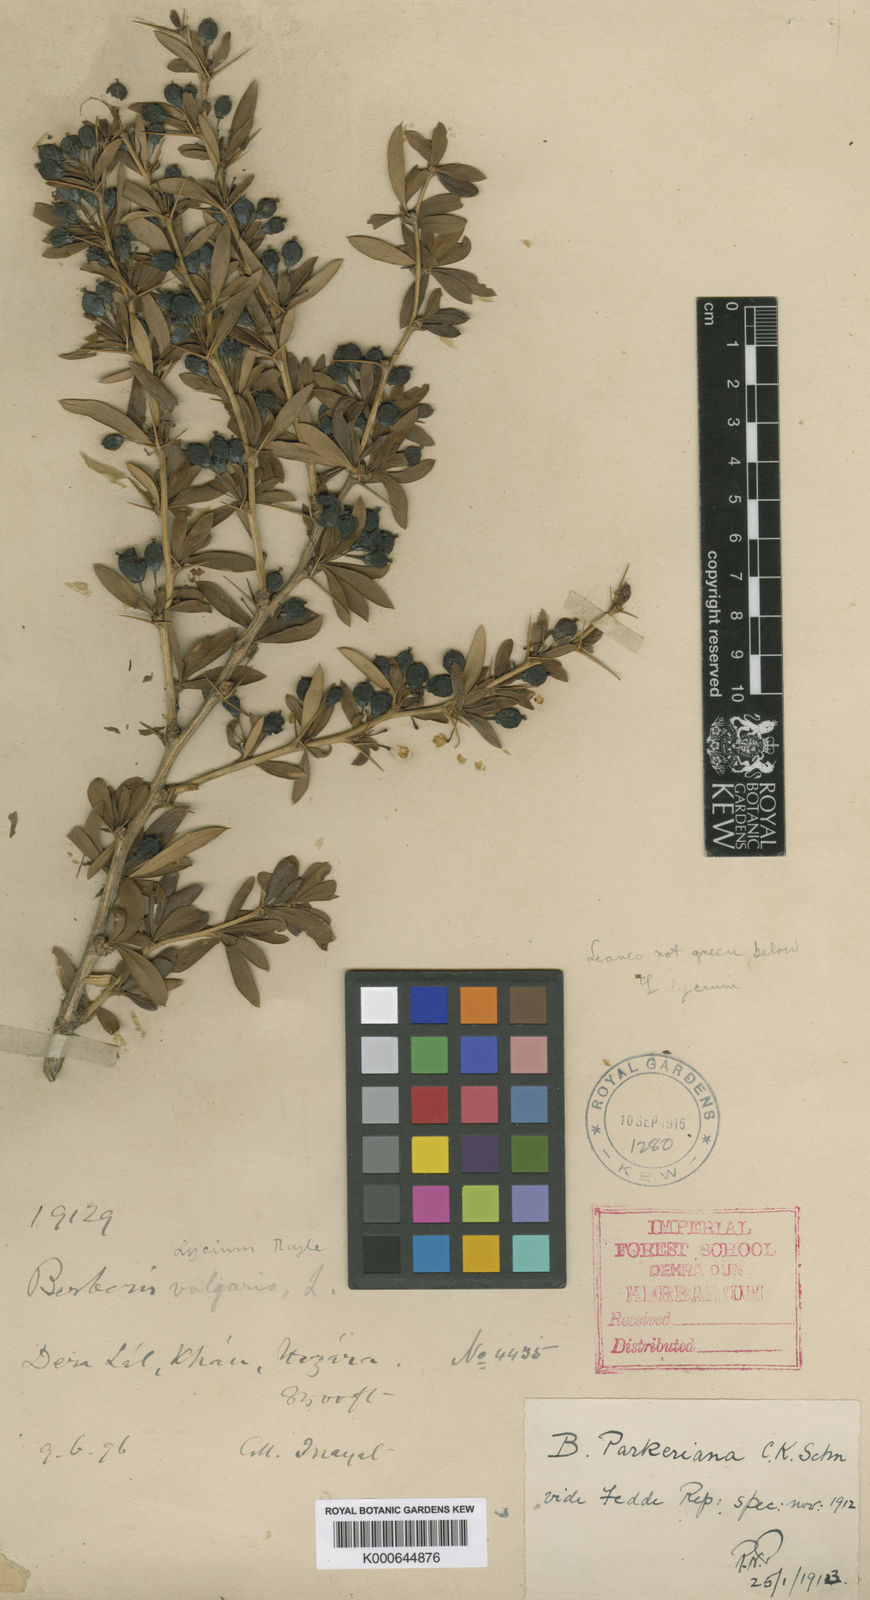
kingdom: Plantae
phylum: Tracheophyta
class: Magnoliopsida
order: Ranunculales
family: Berberidaceae
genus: Berberis
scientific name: Berberis parkeriana
